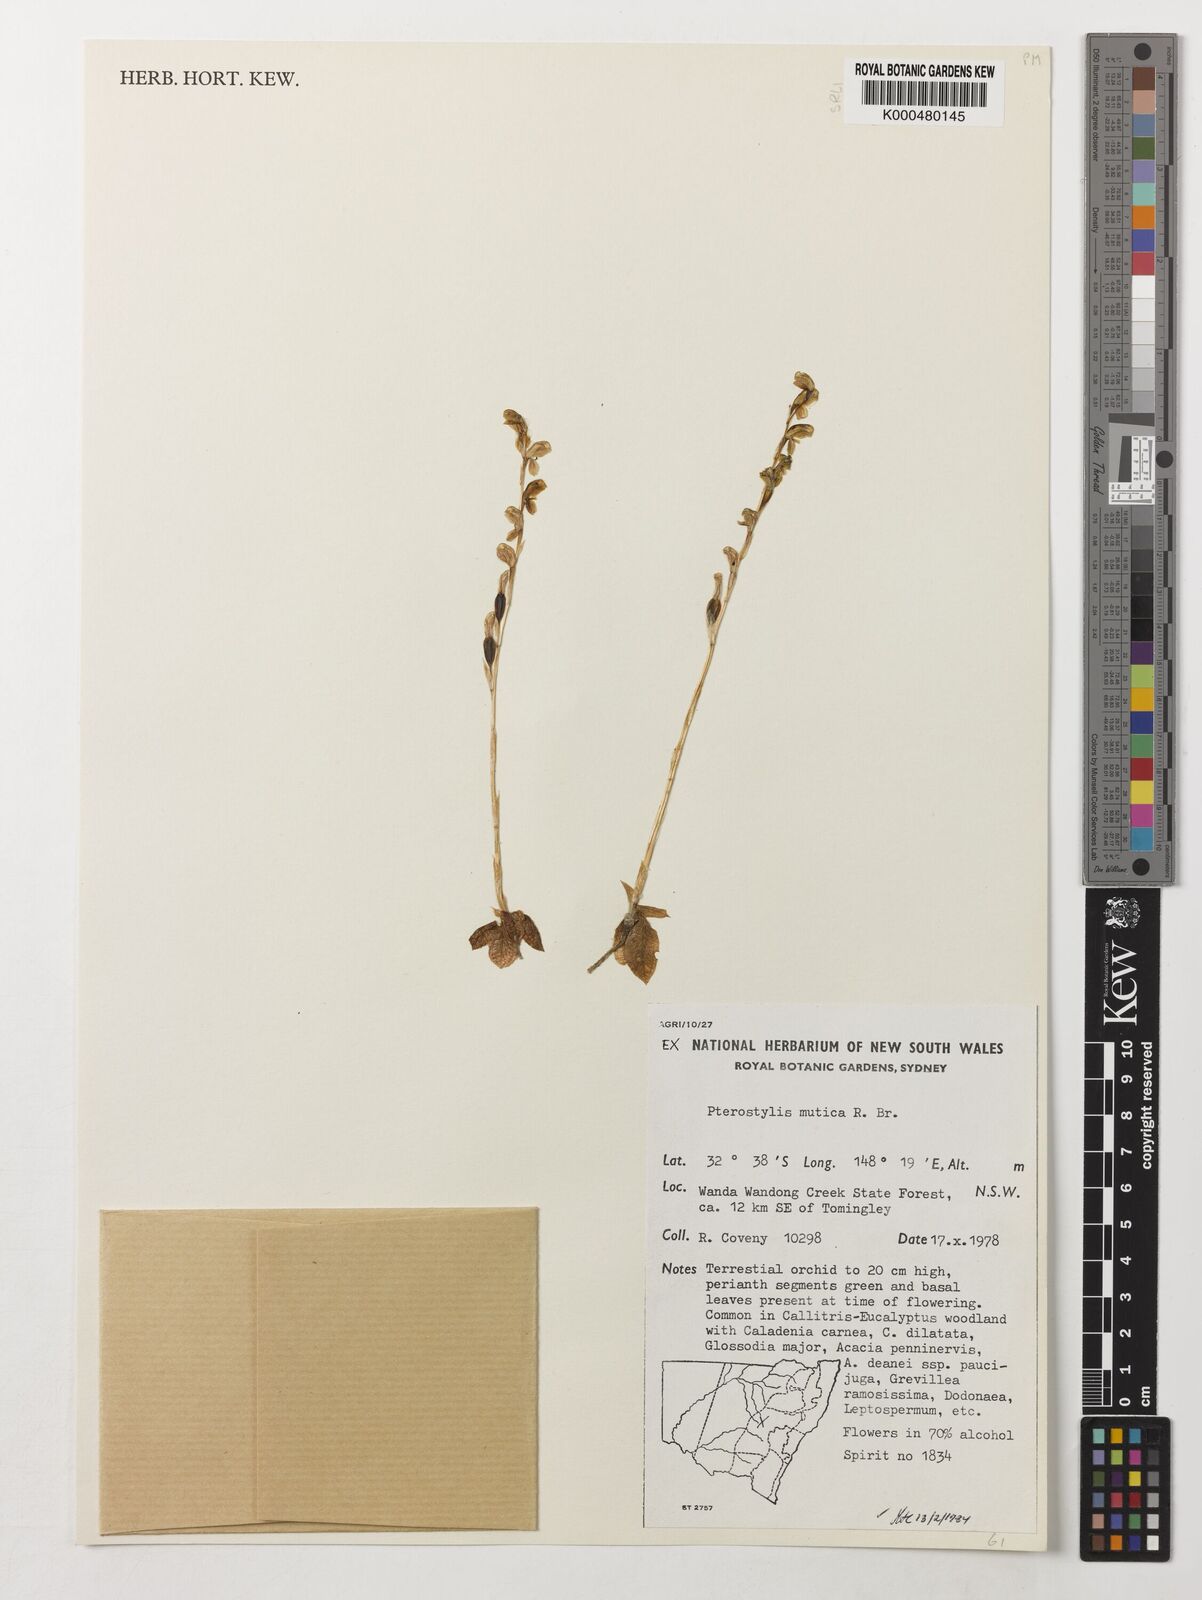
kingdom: Plantae
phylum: Tracheophyta
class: Liliopsida
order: Asparagales
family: Orchidaceae
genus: Pterostylis
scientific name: Pterostylis mutica
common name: Midget greenhood
